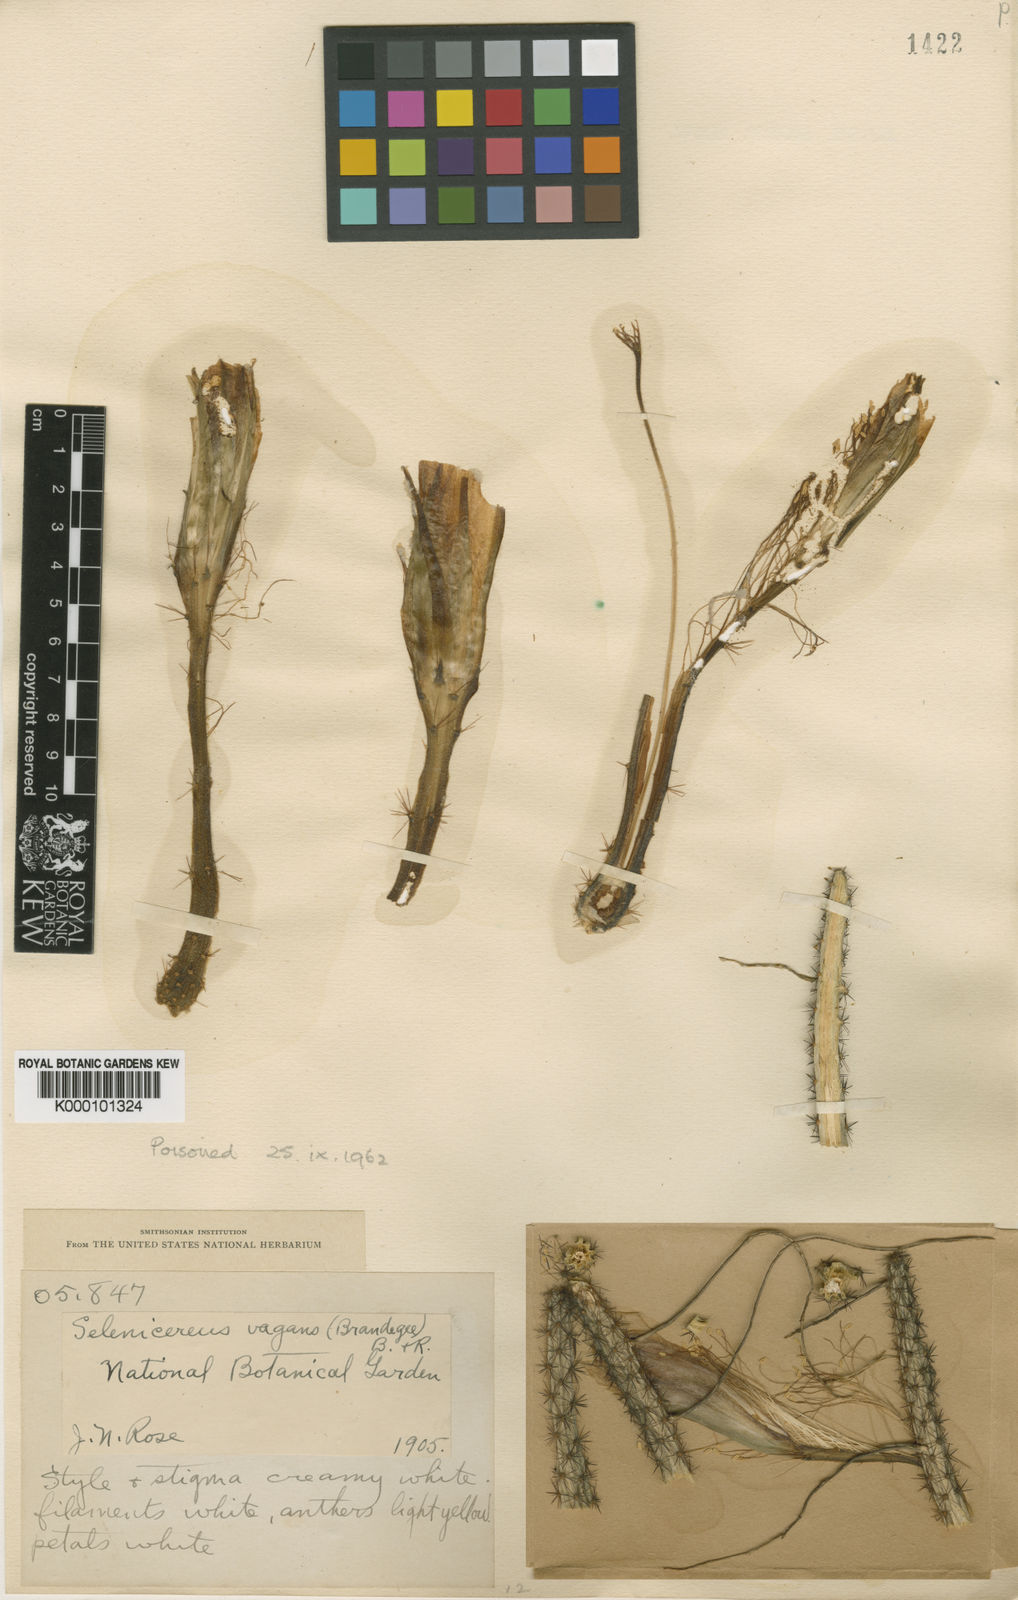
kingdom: Plantae
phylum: Tracheophyta
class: Magnoliopsida
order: Caryophyllales
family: Cactaceae
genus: Selenicereus
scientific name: Selenicereus vagans
